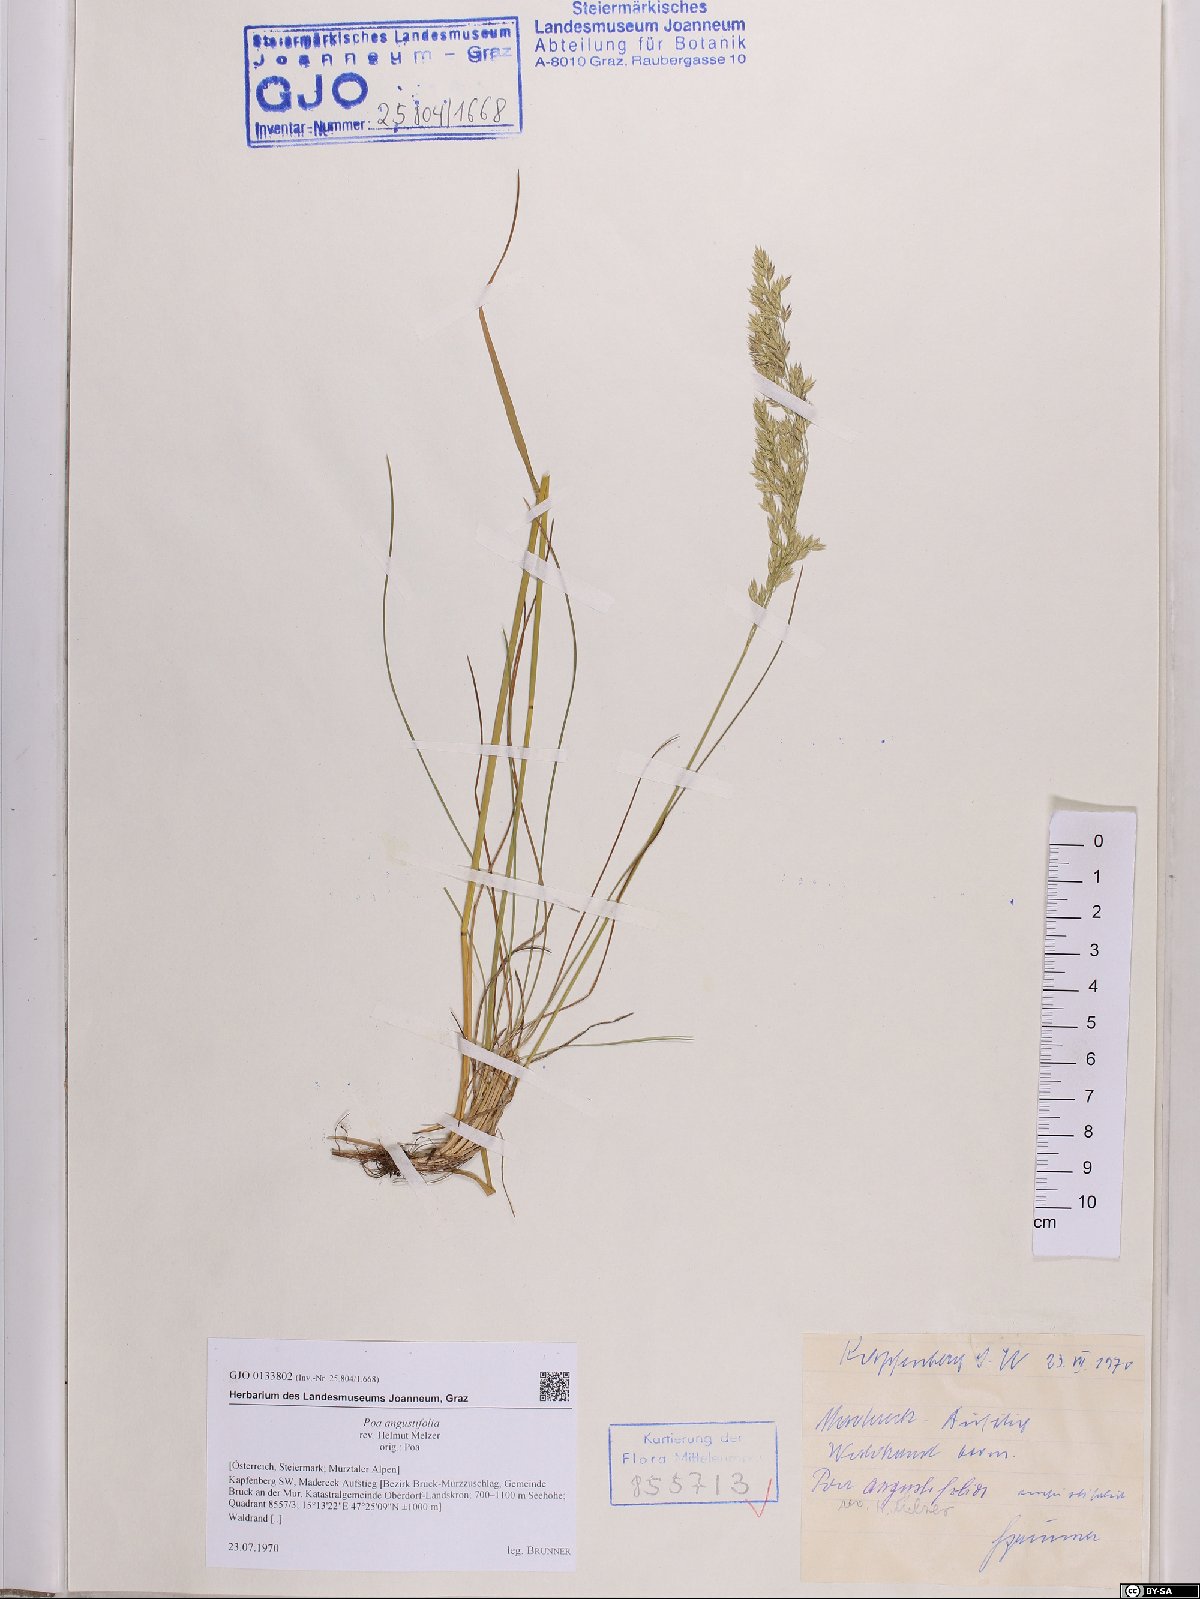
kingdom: Plantae
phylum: Tracheophyta
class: Liliopsida
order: Poales
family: Poaceae
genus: Poa
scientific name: Poa angustifolia
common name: Narrow-leaved meadow-grass
